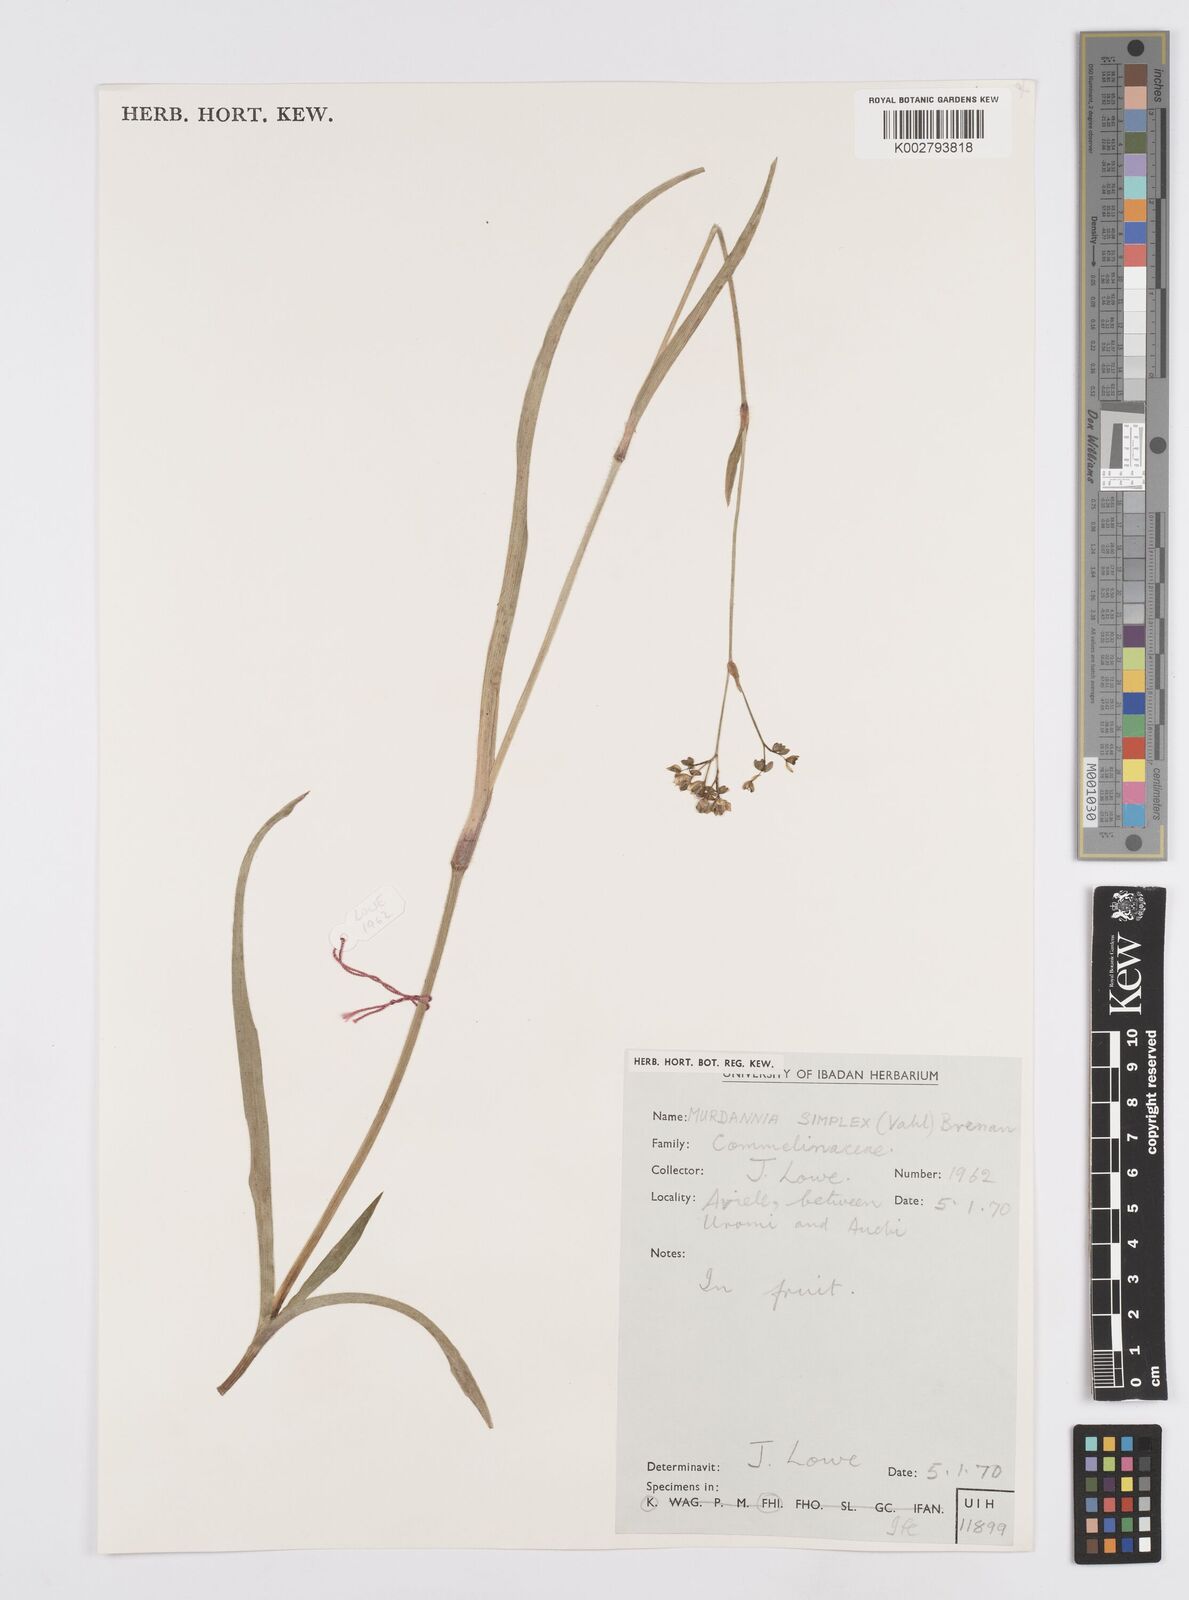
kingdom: Plantae
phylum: Tracheophyta
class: Liliopsida
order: Commelinales
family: Commelinaceae
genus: Murdannia
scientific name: Murdannia simplex
